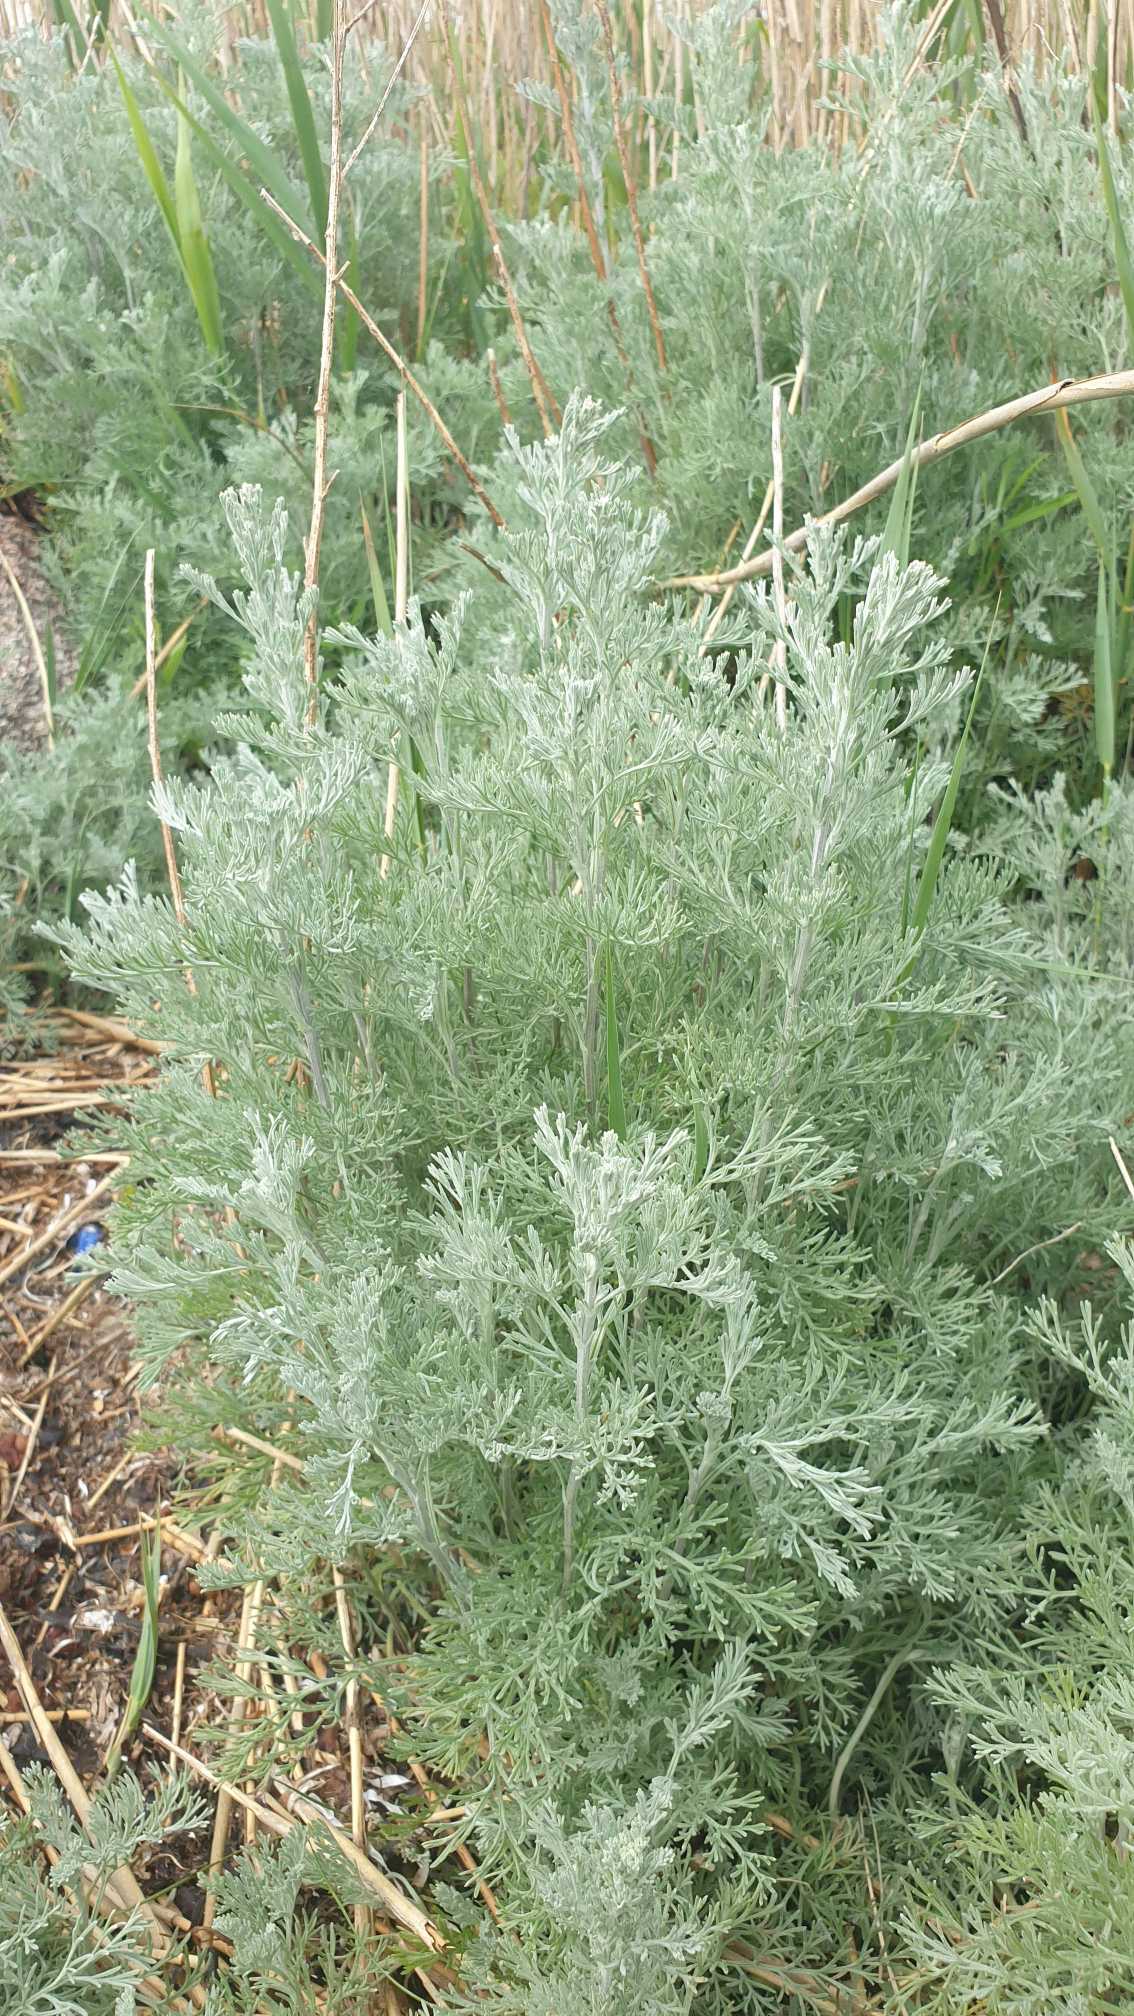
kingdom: Plantae
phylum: Tracheophyta
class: Magnoliopsida
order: Asterales
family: Asteraceae
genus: Artemisia
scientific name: Artemisia maritima
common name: Strandmalurt
